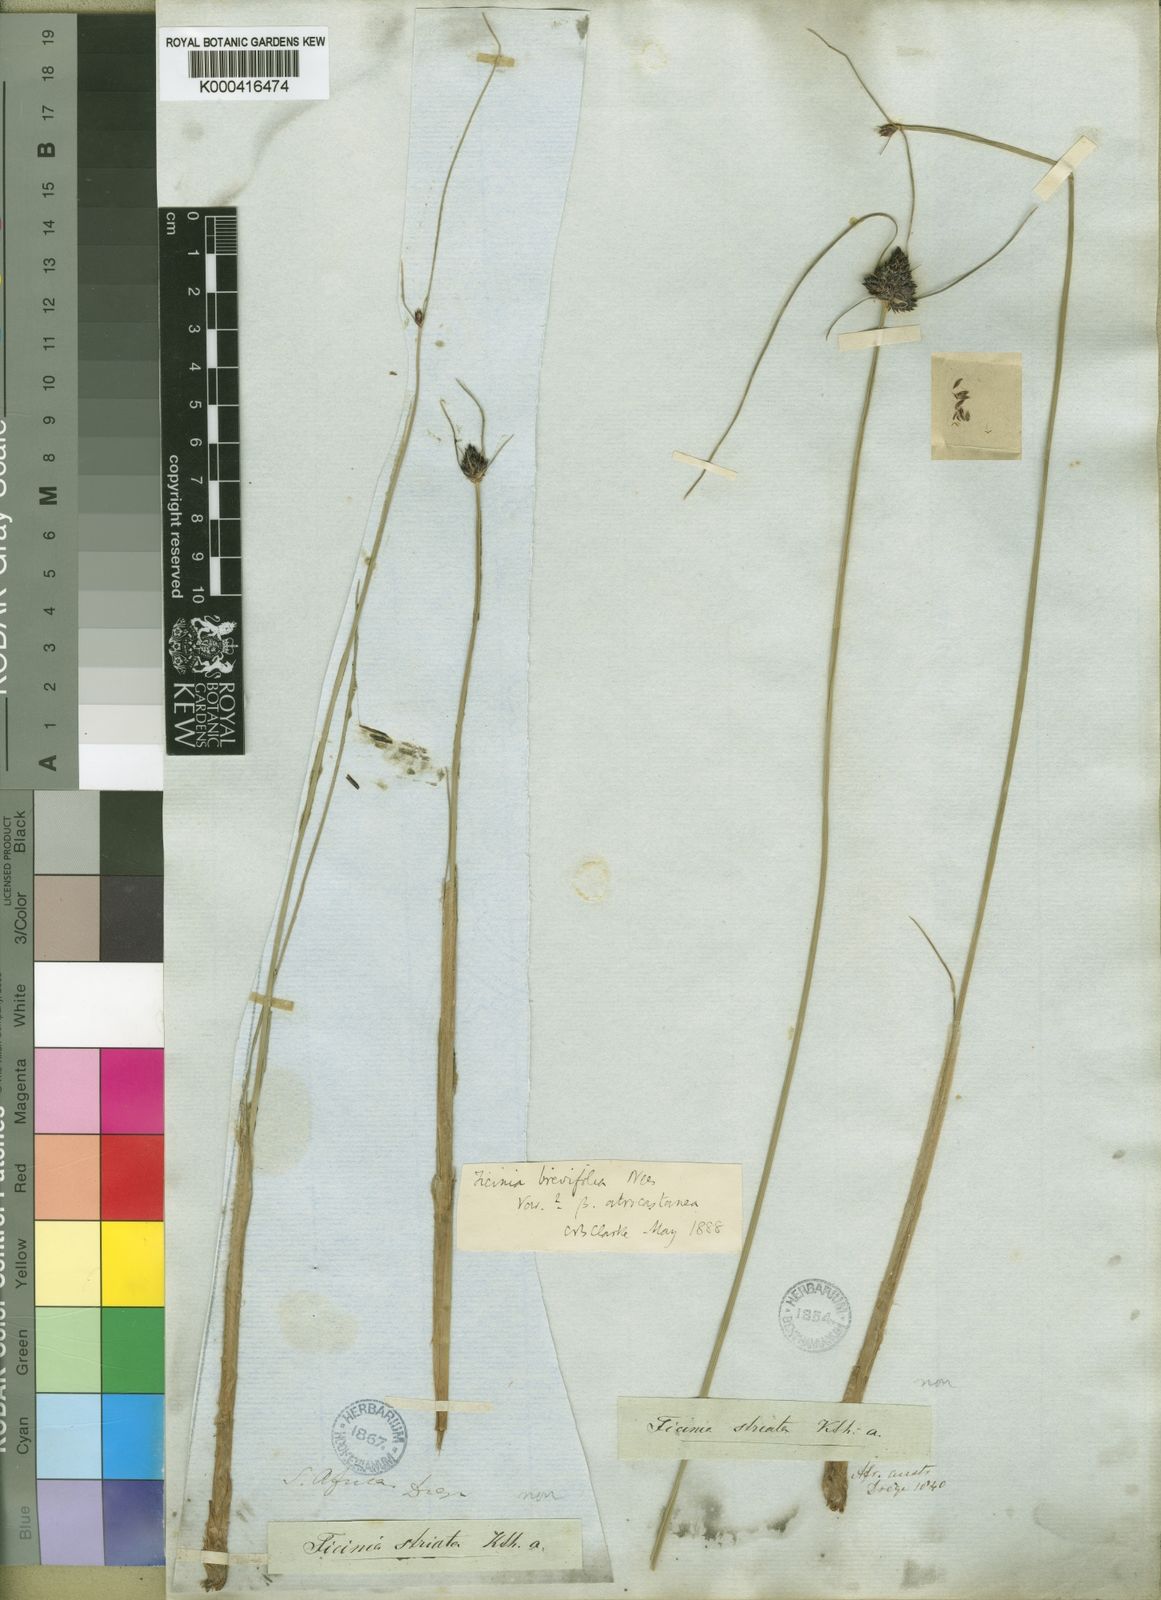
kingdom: Plantae
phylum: Tracheophyta
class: Liliopsida
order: Poales
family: Cyperaceae
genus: Ficinia
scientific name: Ficinia
